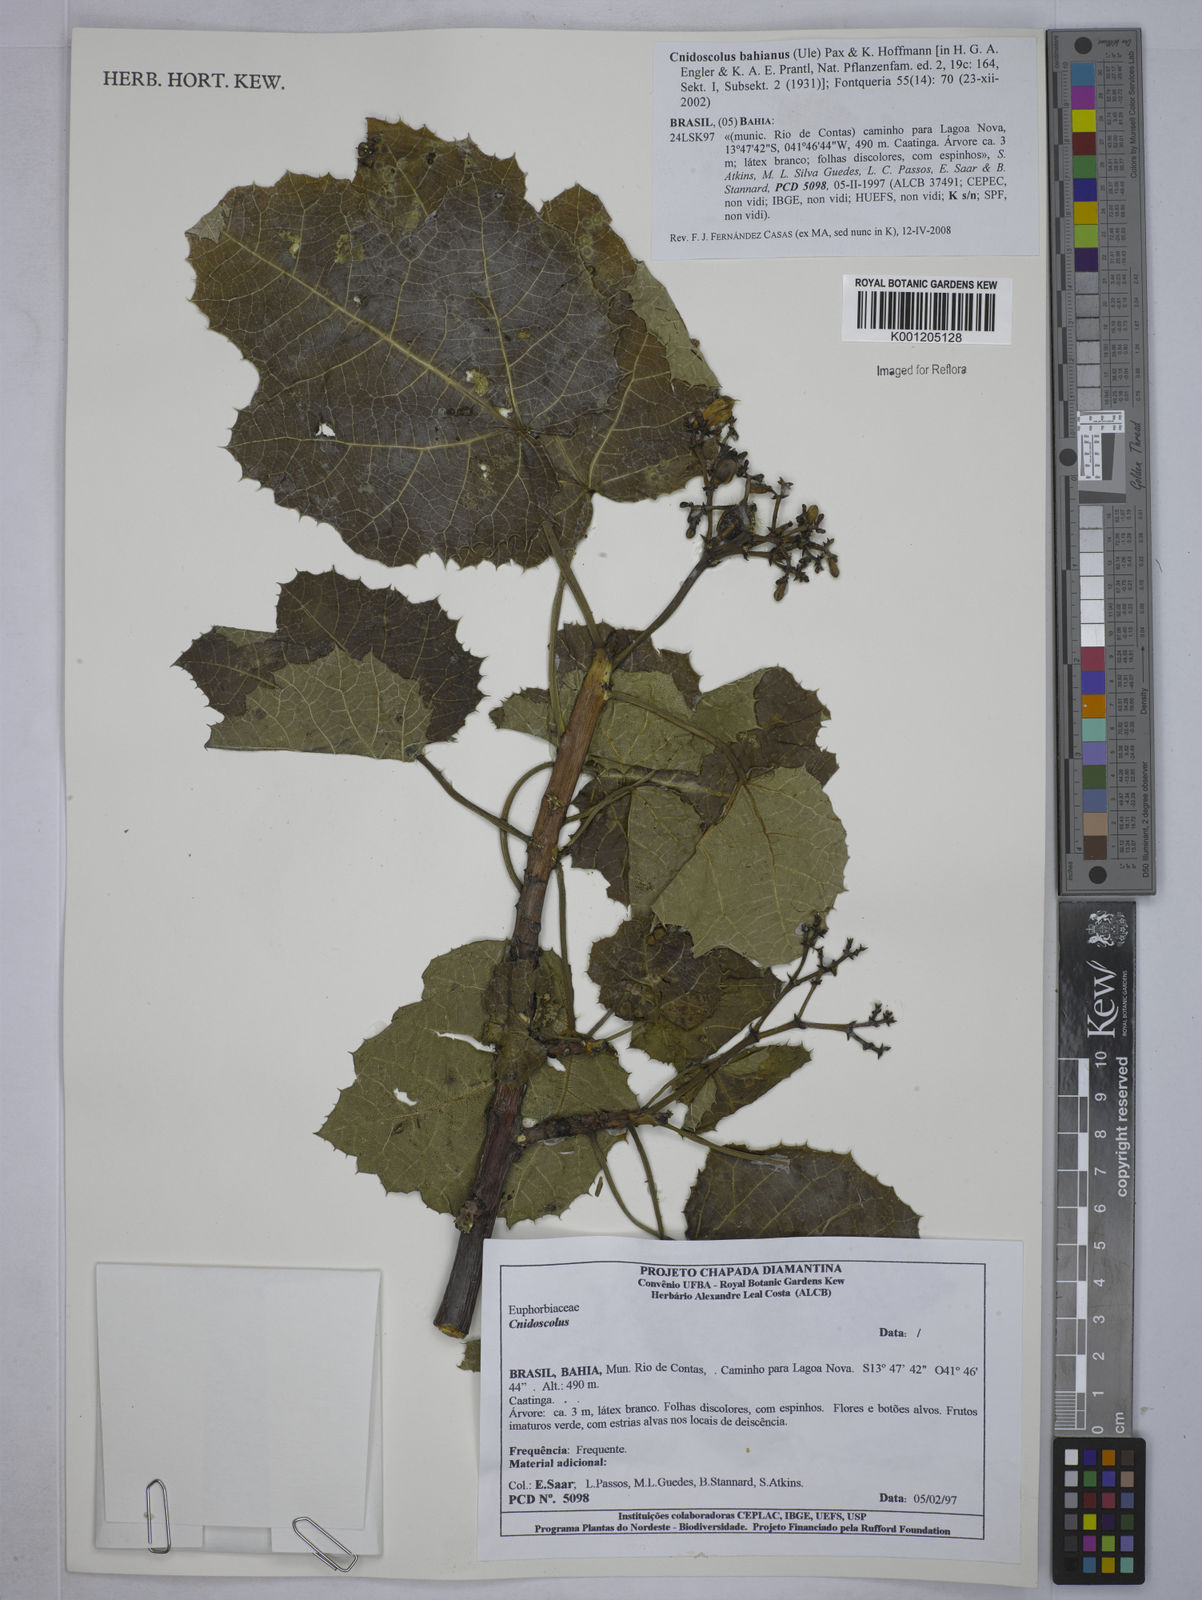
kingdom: Plantae
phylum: Tracheophyta
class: Magnoliopsida
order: Malpighiales
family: Euphorbiaceae
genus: Cnidoscolus
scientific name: Cnidoscolus bahianus
